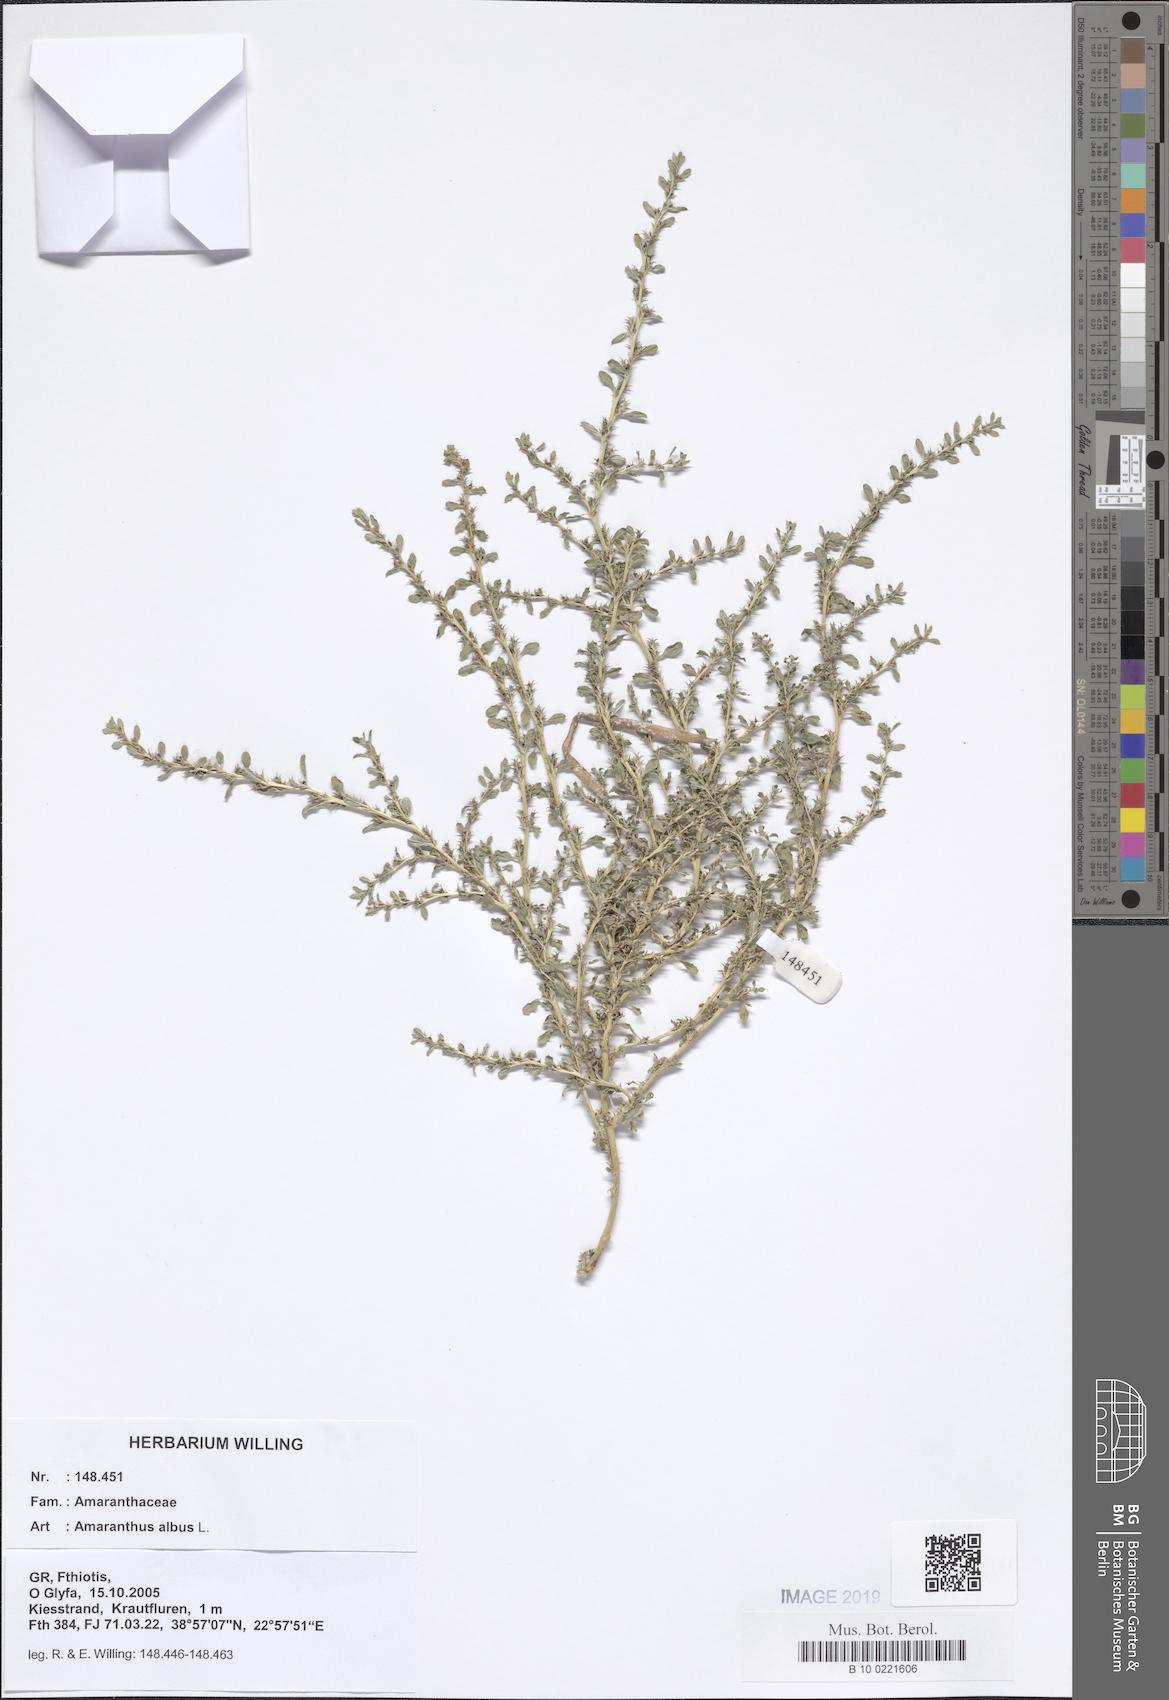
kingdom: Plantae
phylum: Tracheophyta
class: Magnoliopsida
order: Caryophyllales
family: Amaranthaceae
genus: Amaranthus
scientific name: Amaranthus albus
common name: White pigweed
